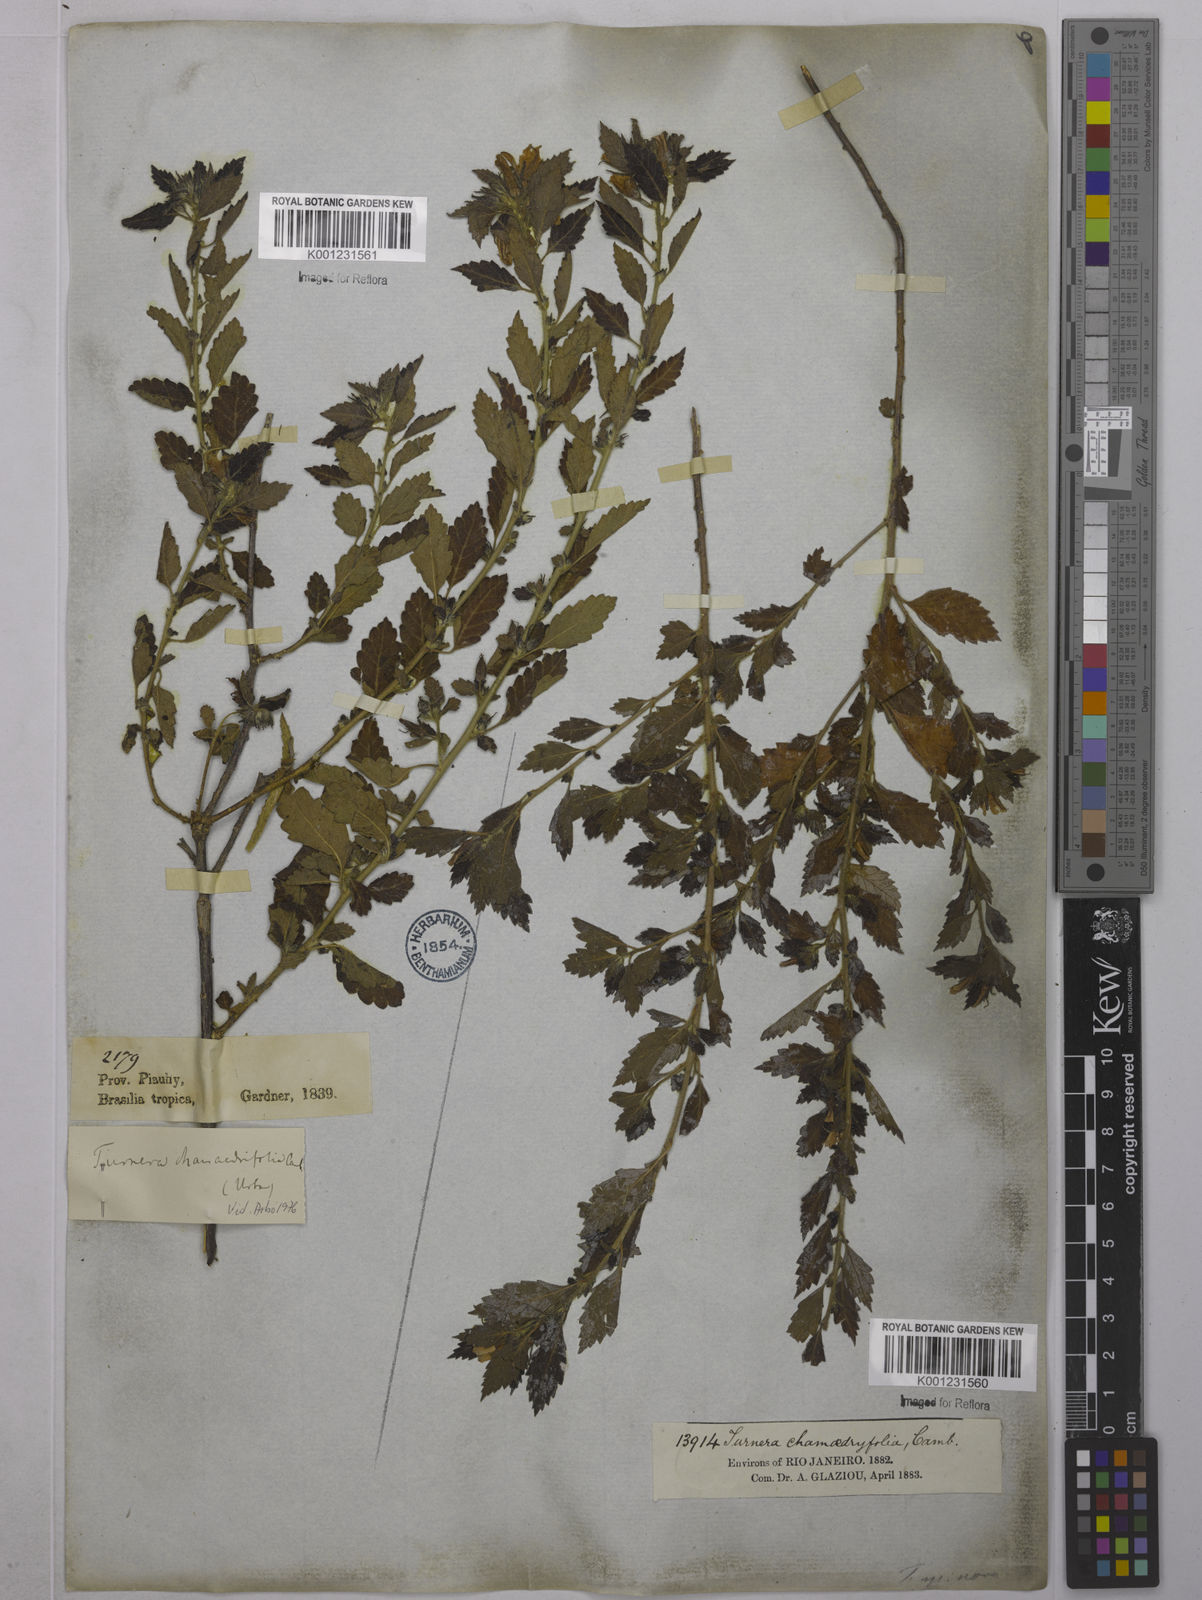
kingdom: Plantae
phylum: Tracheophyta
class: Magnoliopsida
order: Malpighiales
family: Turneraceae
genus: Turnera
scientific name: Turnera chamaedrifolia
